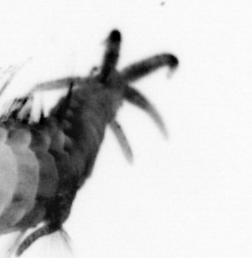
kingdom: Animalia
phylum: Annelida
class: Polychaeta
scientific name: Polychaeta
